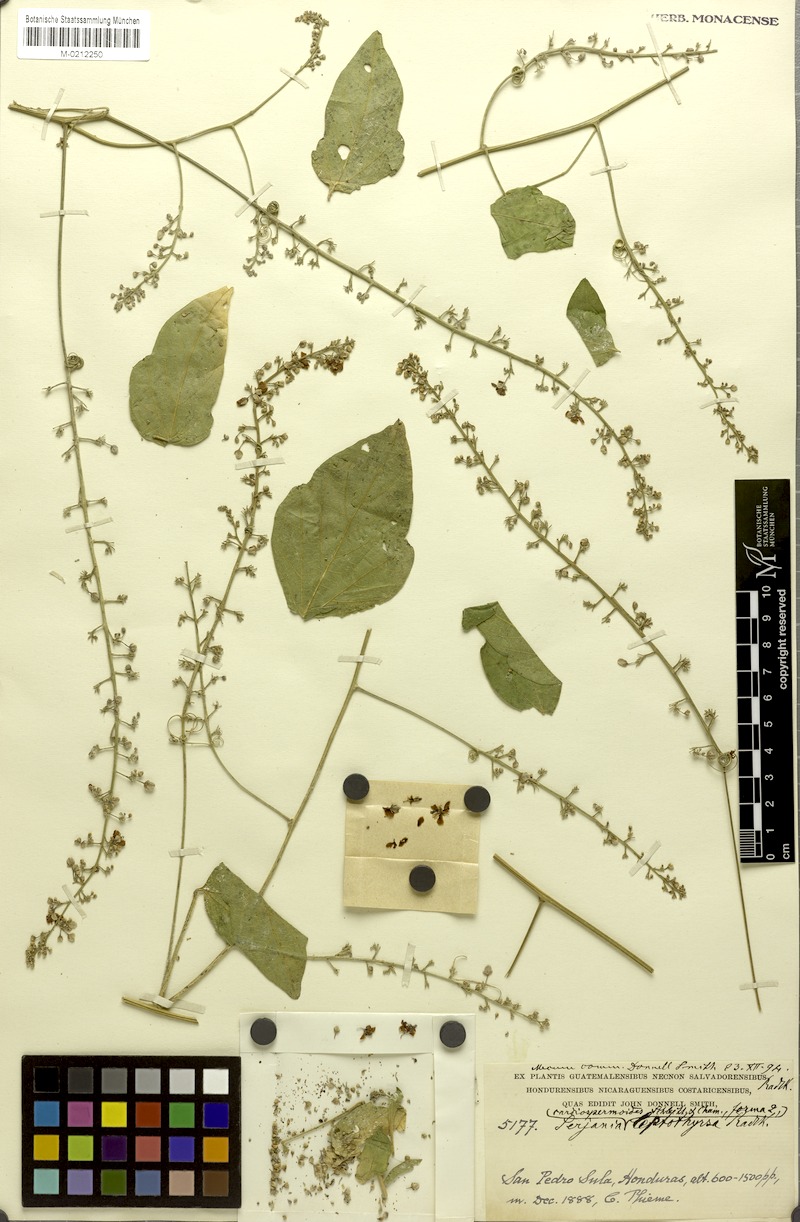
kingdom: Plantae
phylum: Tracheophyta
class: Magnoliopsida
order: Sapindales
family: Sapindaceae
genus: Serjania
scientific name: Serjania
